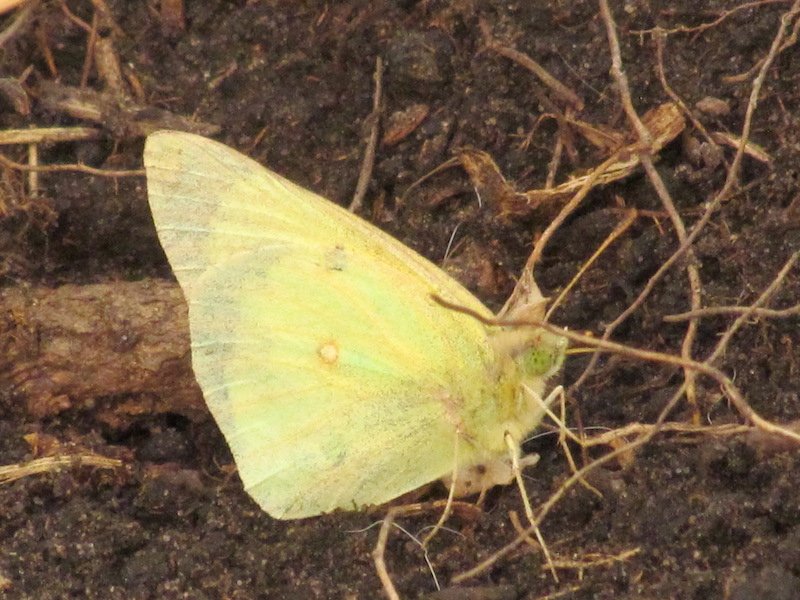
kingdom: Animalia
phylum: Arthropoda
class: Insecta
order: Lepidoptera
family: Pieridae
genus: Colias
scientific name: Colias
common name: Clouded Yellows
